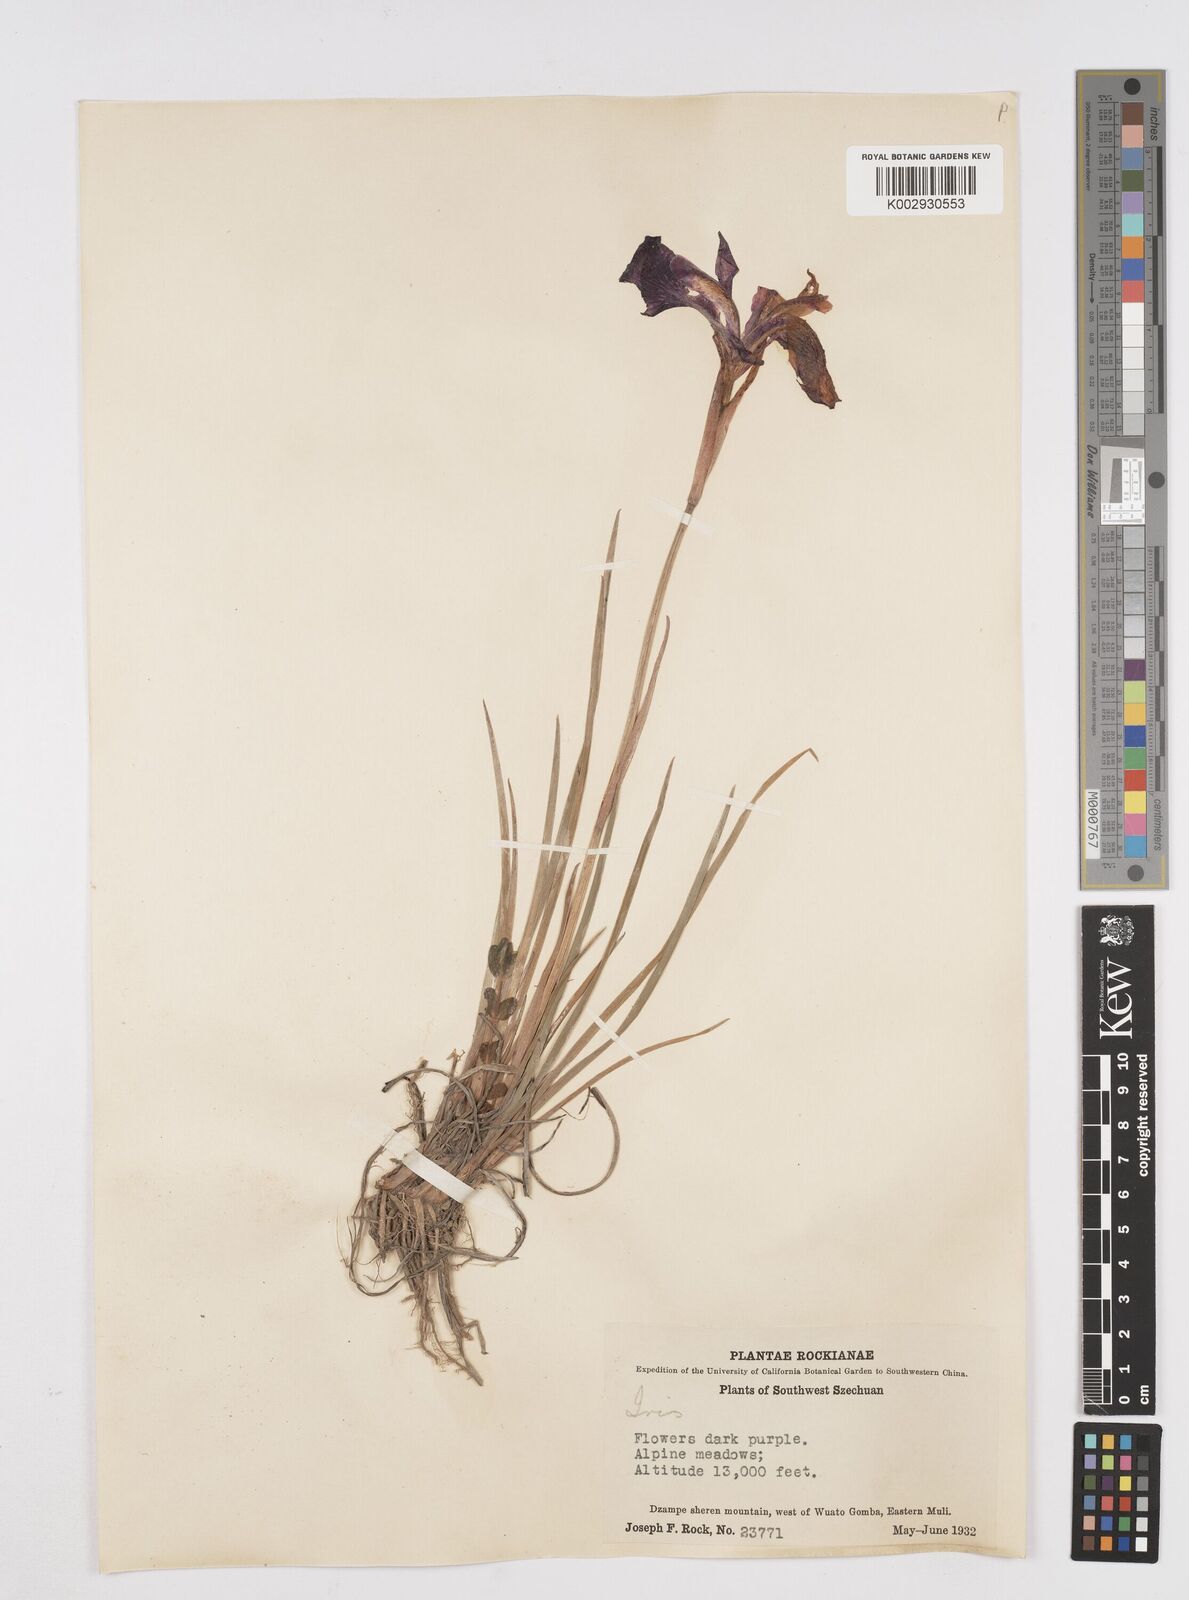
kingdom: Plantae
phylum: Tracheophyta
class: Liliopsida
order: Asparagales
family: Iridaceae
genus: Iris
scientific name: Iris bulleyana
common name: Southwest iris
